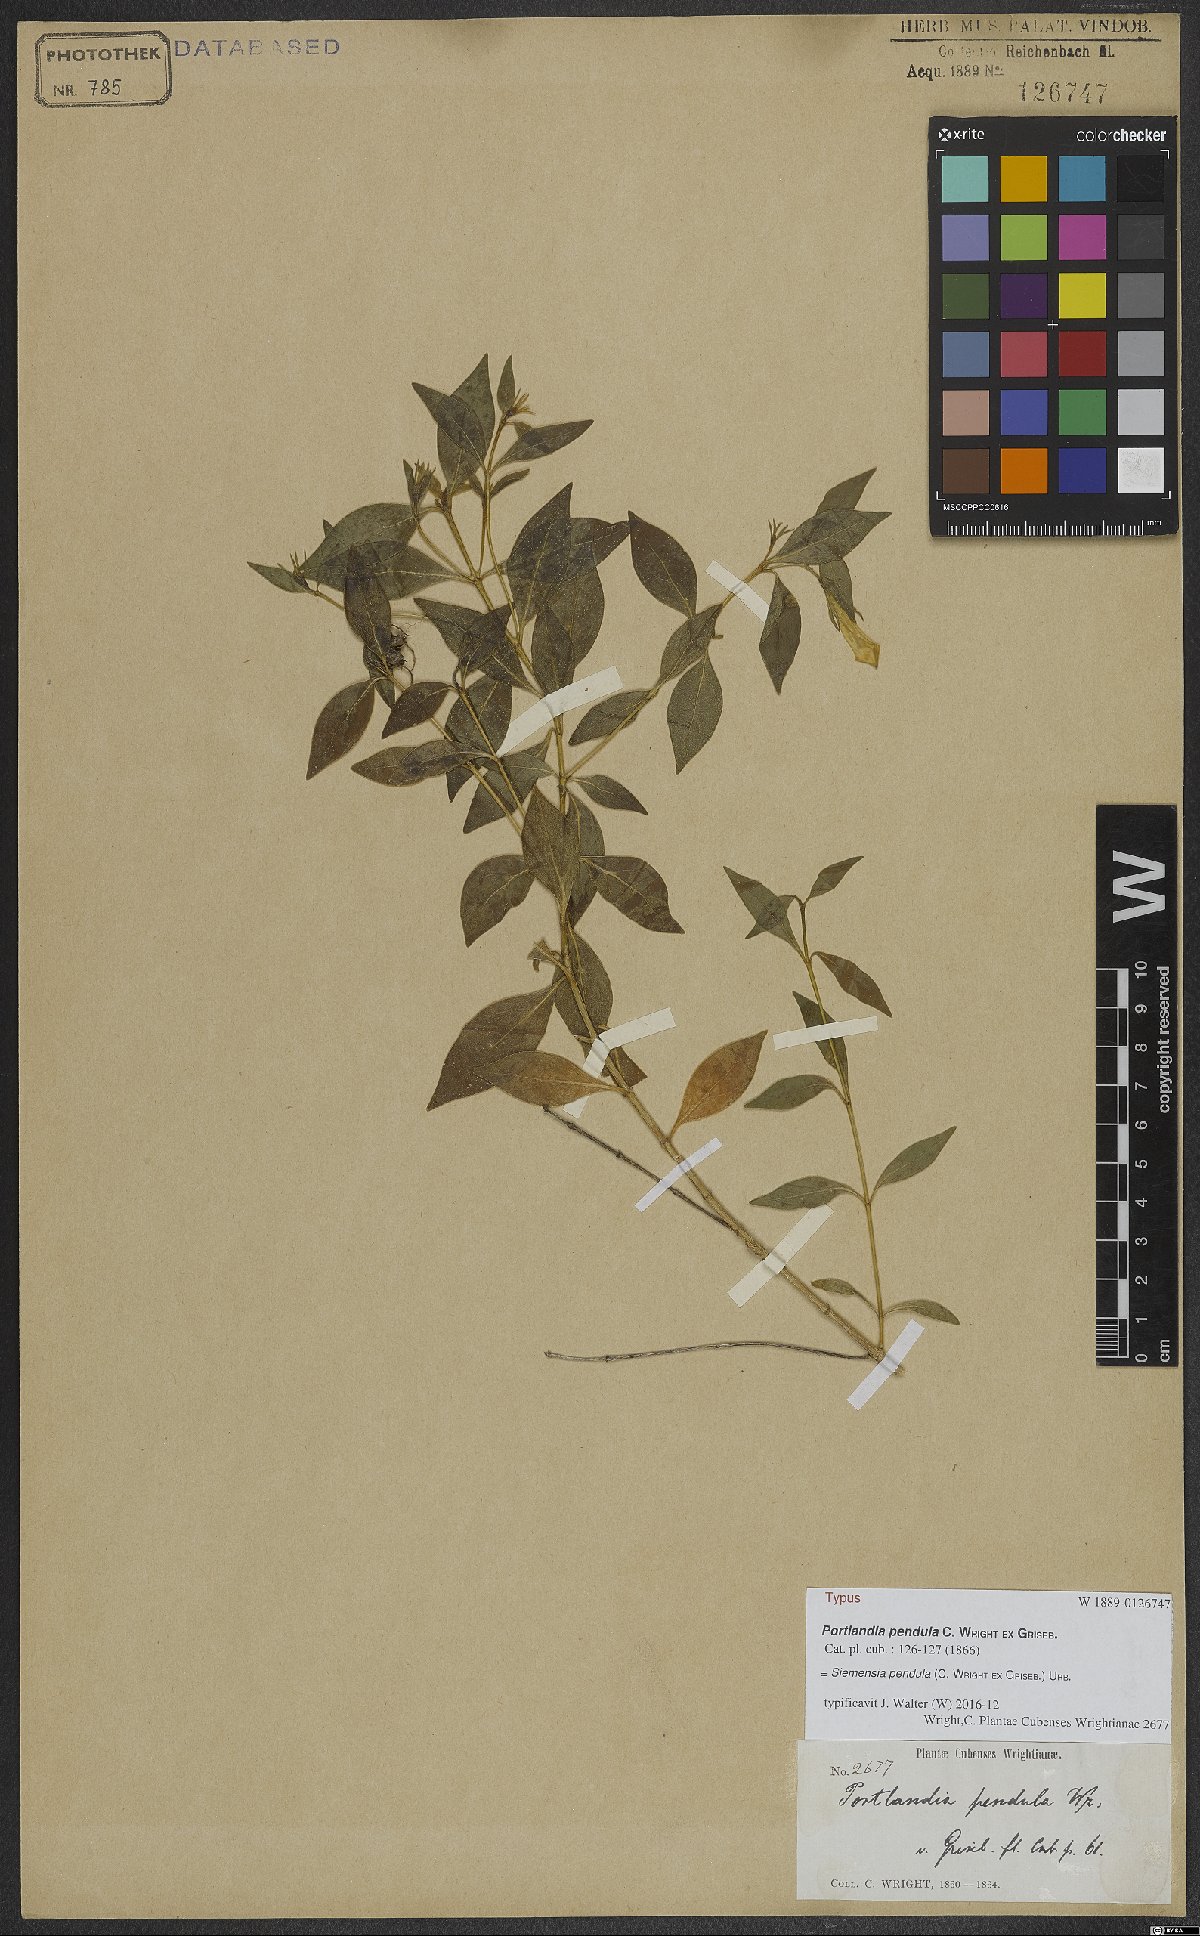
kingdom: Plantae
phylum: Tracheophyta
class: Magnoliopsida
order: Gentianales
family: Rubiaceae
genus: Siemensia
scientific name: Siemensia pendula
